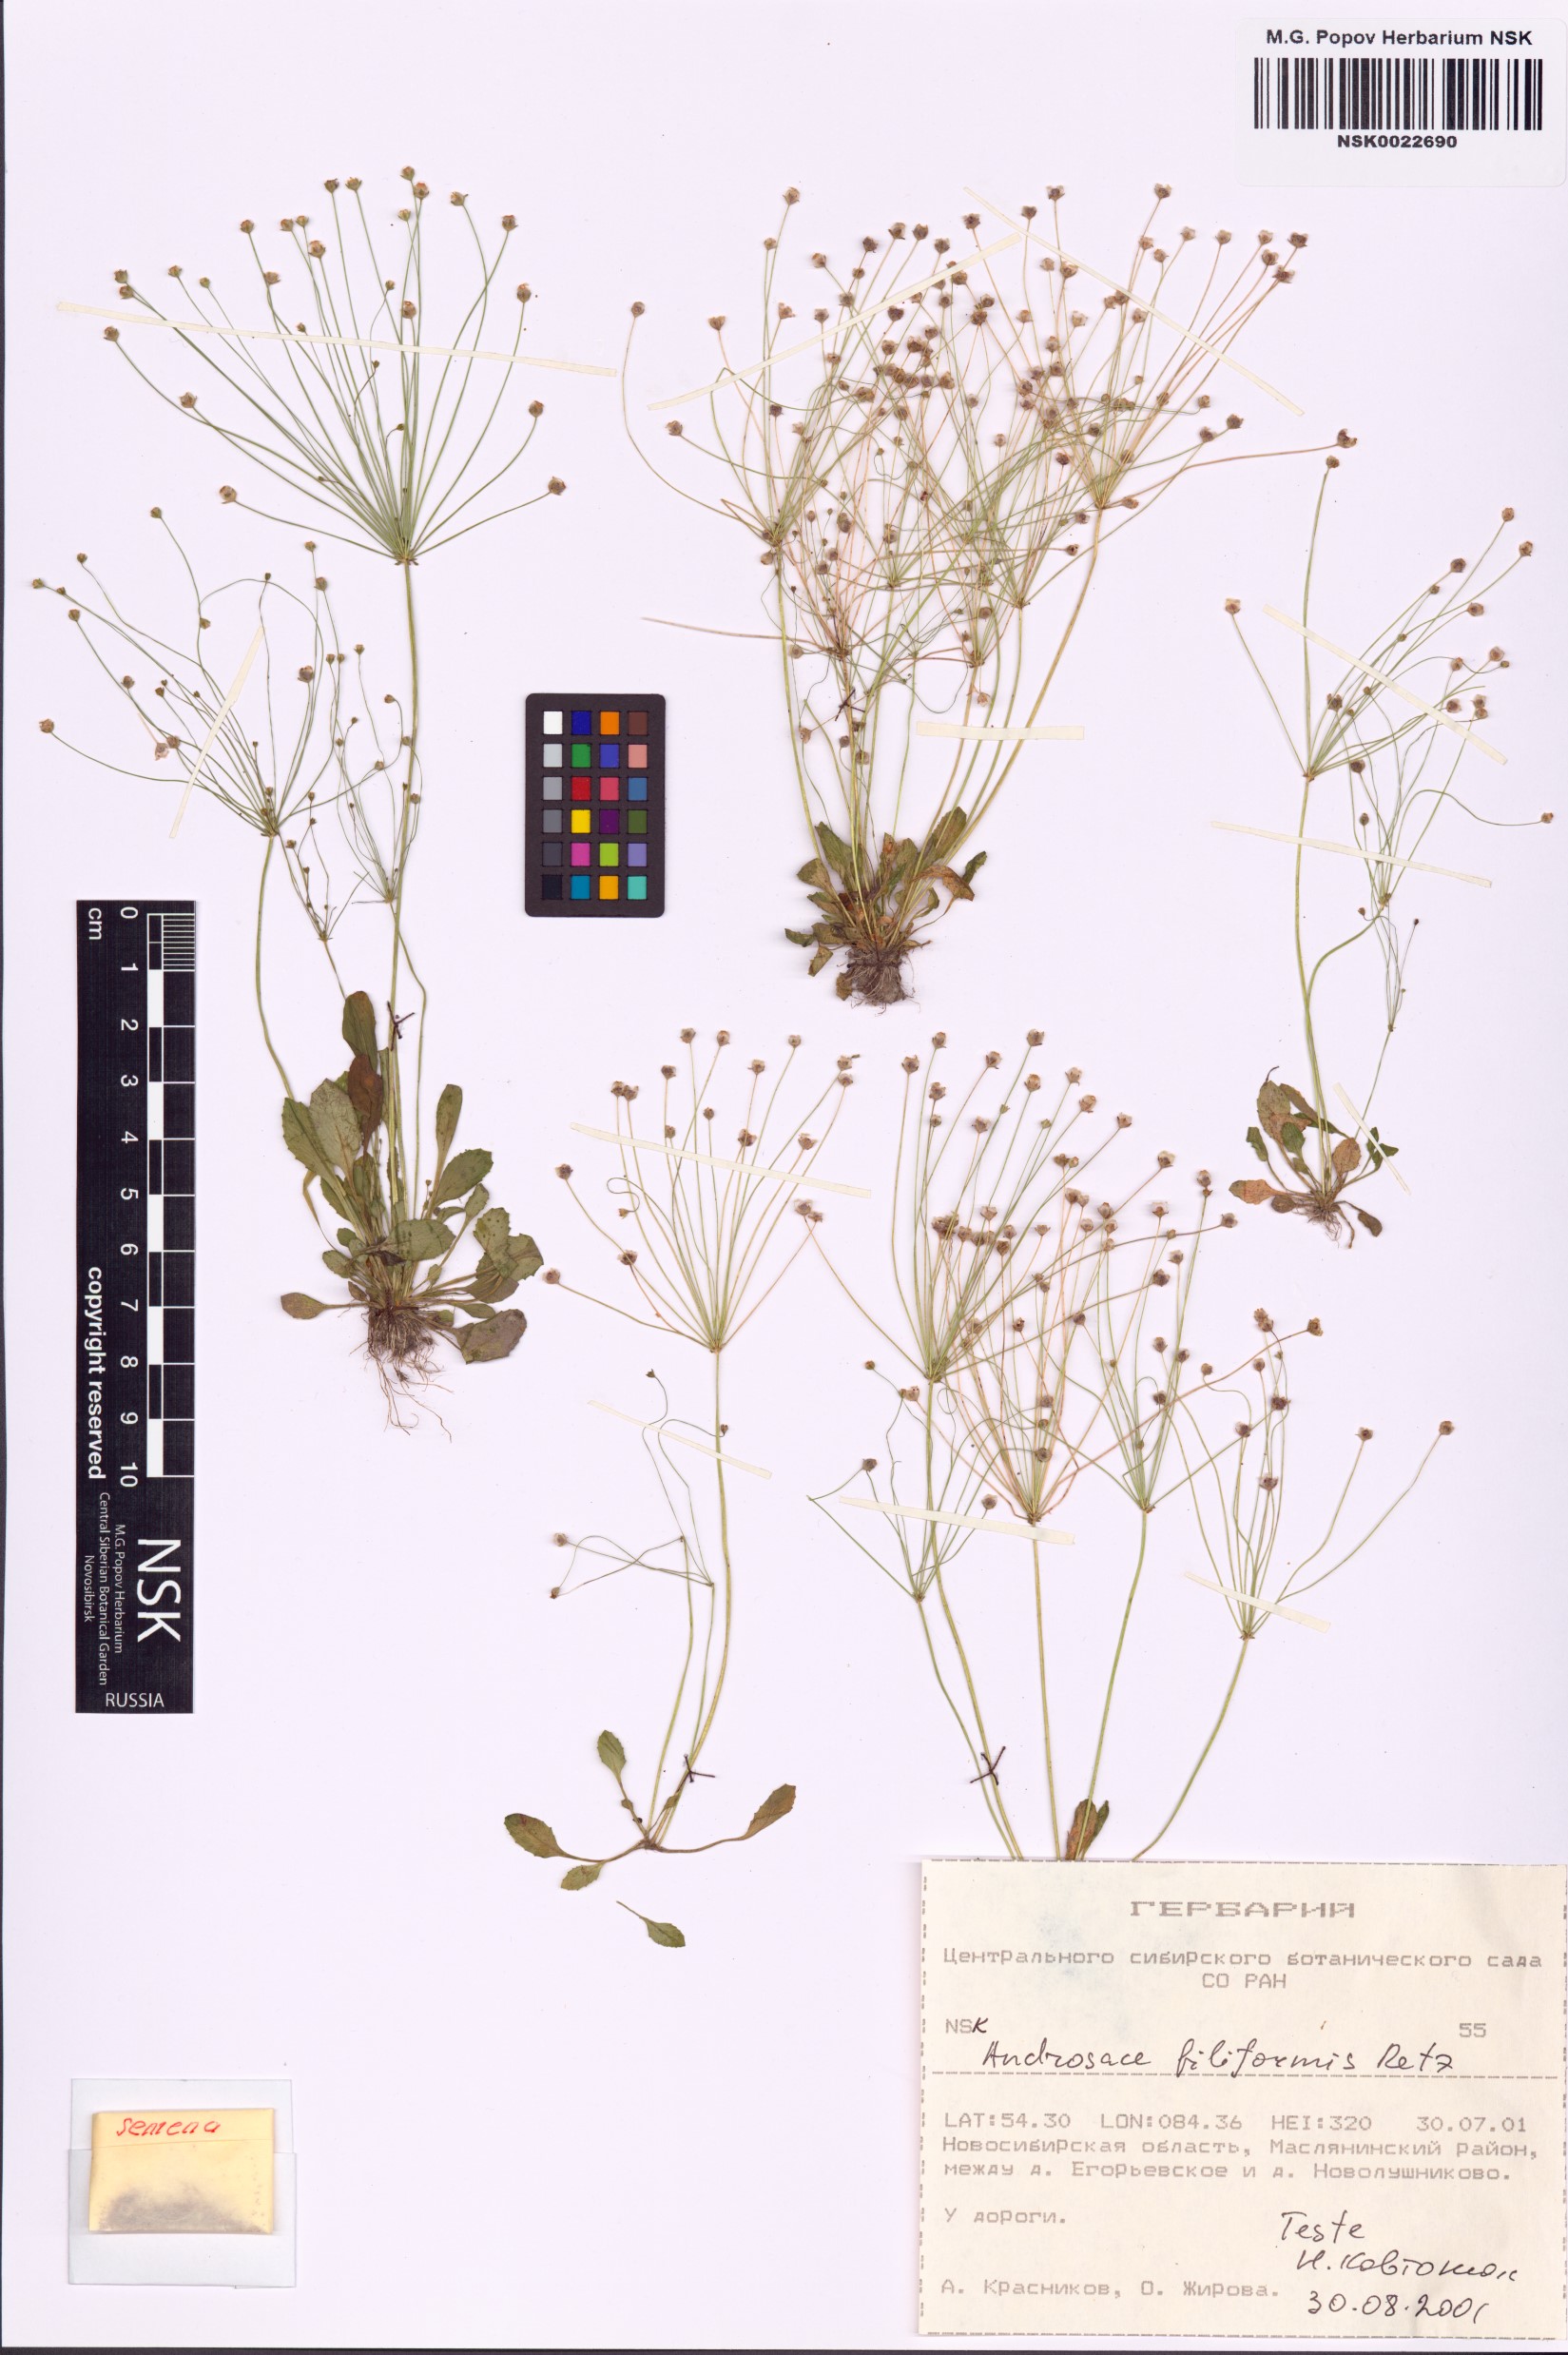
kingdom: Plantae
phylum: Tracheophyta
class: Magnoliopsida
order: Ericales
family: Primulaceae
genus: Androsace
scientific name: Androsace filiformis
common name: Filiform rock jasmine
